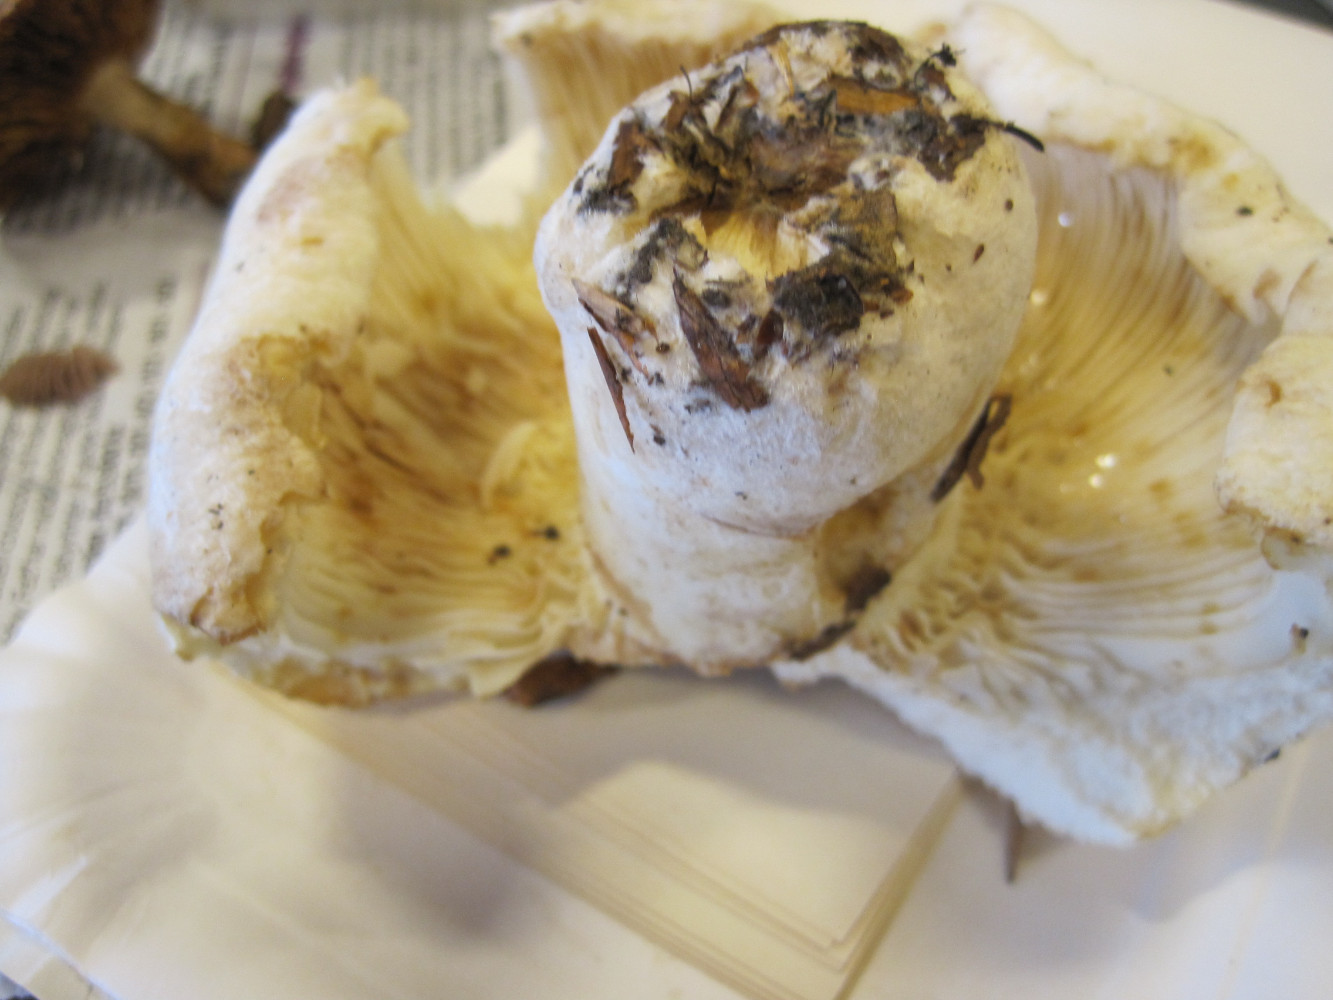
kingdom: Fungi
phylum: Basidiomycota
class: Agaricomycetes
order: Russulales
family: Russulaceae
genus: Lactifluus
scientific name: Lactifluus vellereus
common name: hvidfiltet mælkehat
